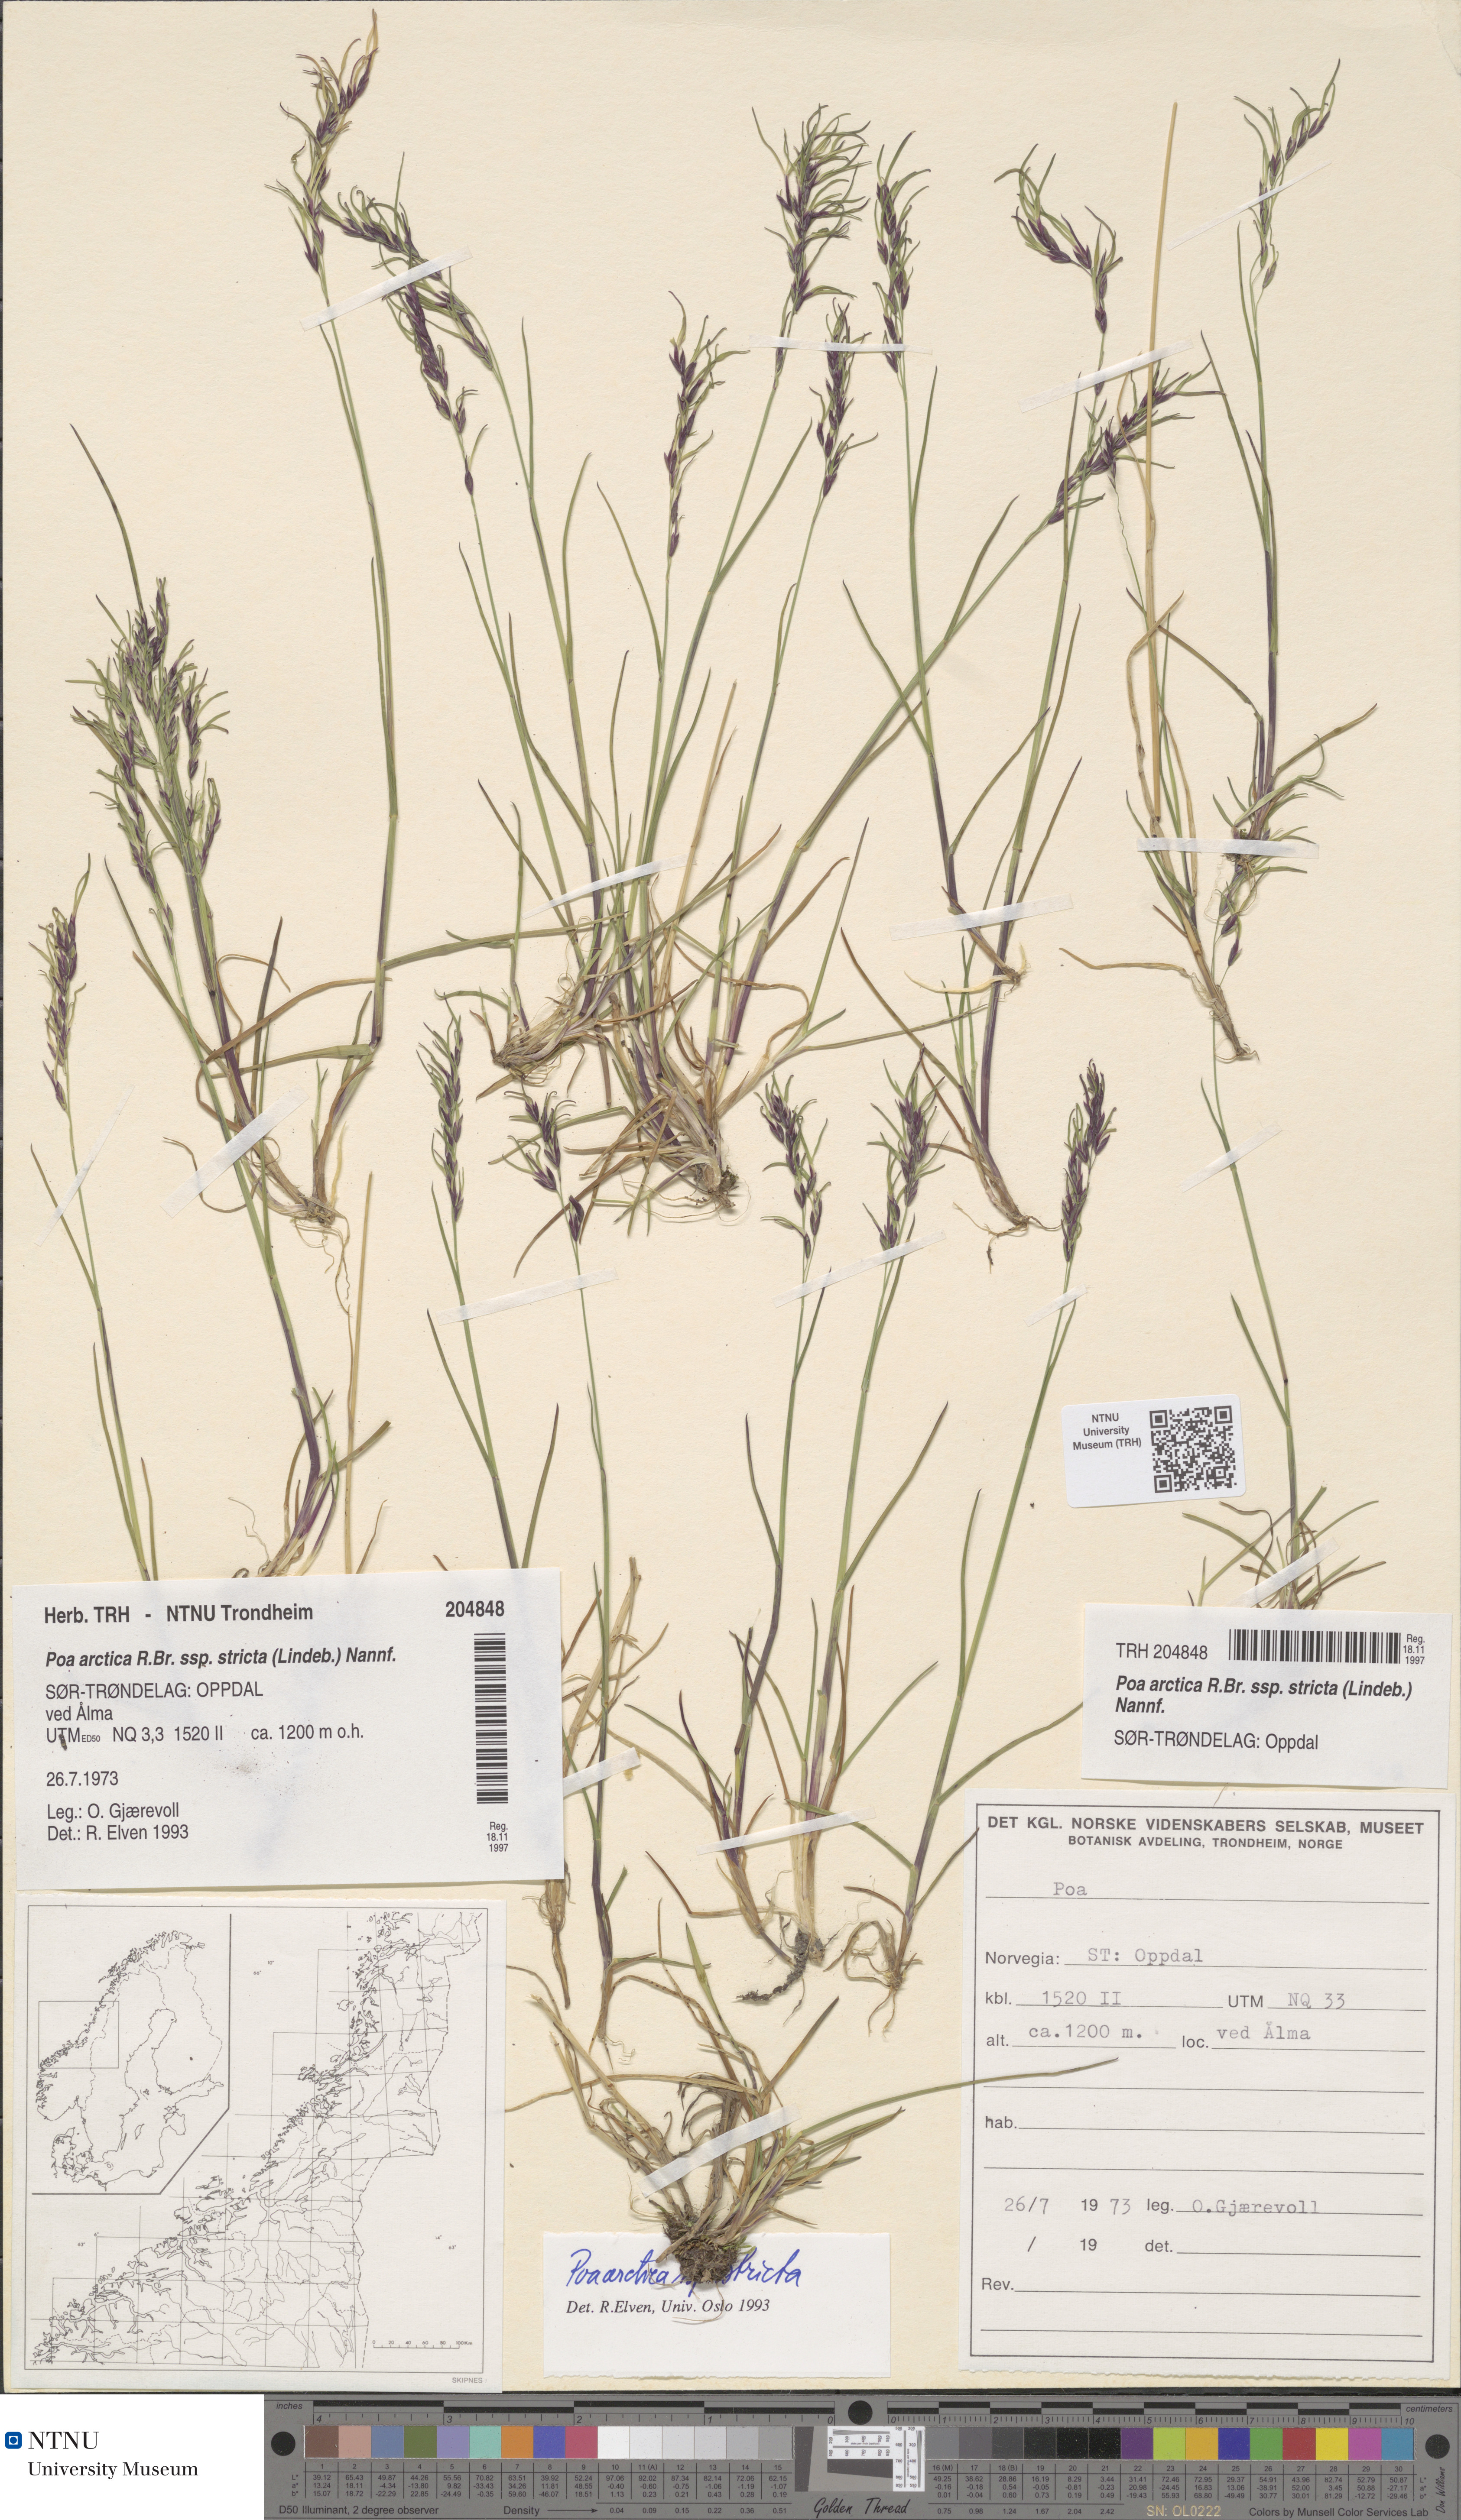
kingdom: Plantae
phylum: Tracheophyta
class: Liliopsida
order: Poales
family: Poaceae
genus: Poa
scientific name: Poa lindebergii
